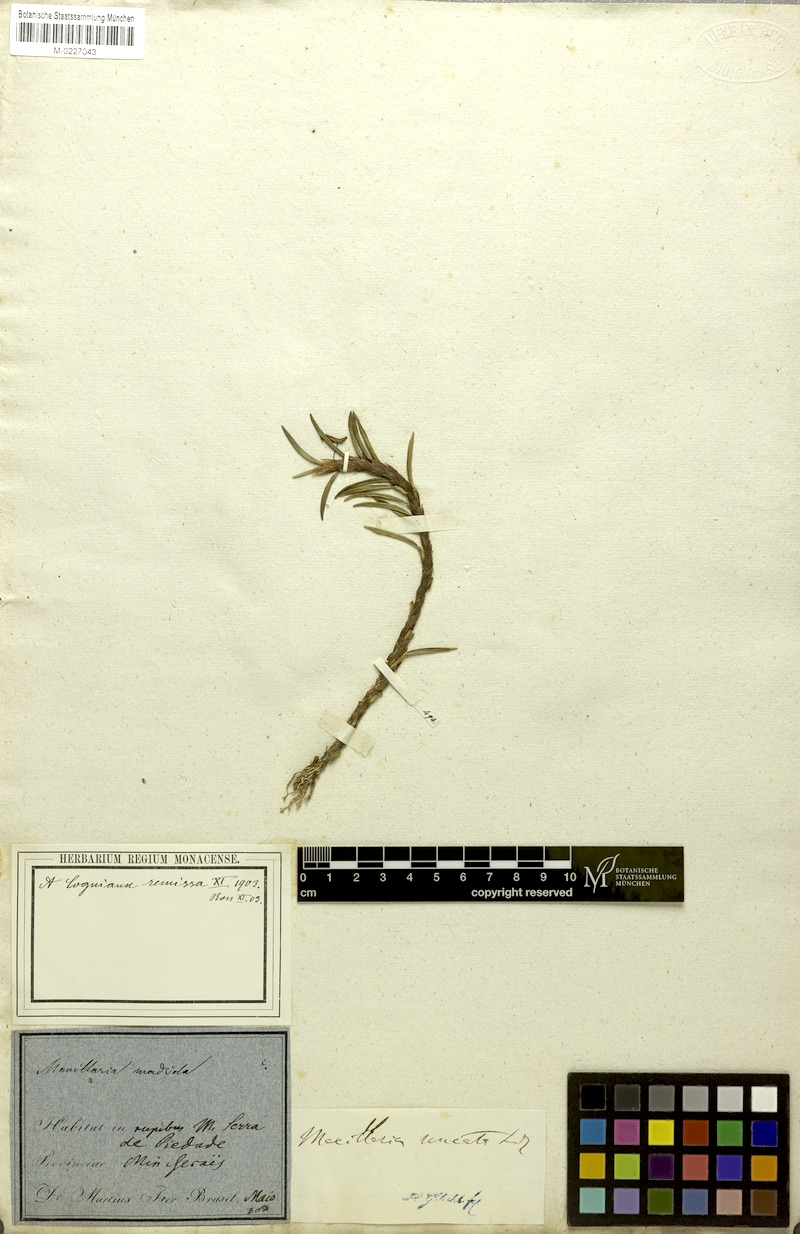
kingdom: Plantae
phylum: Tracheophyta
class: Liliopsida
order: Asparagales
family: Orchidaceae
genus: Maxillaria
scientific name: Maxillaria uncata
